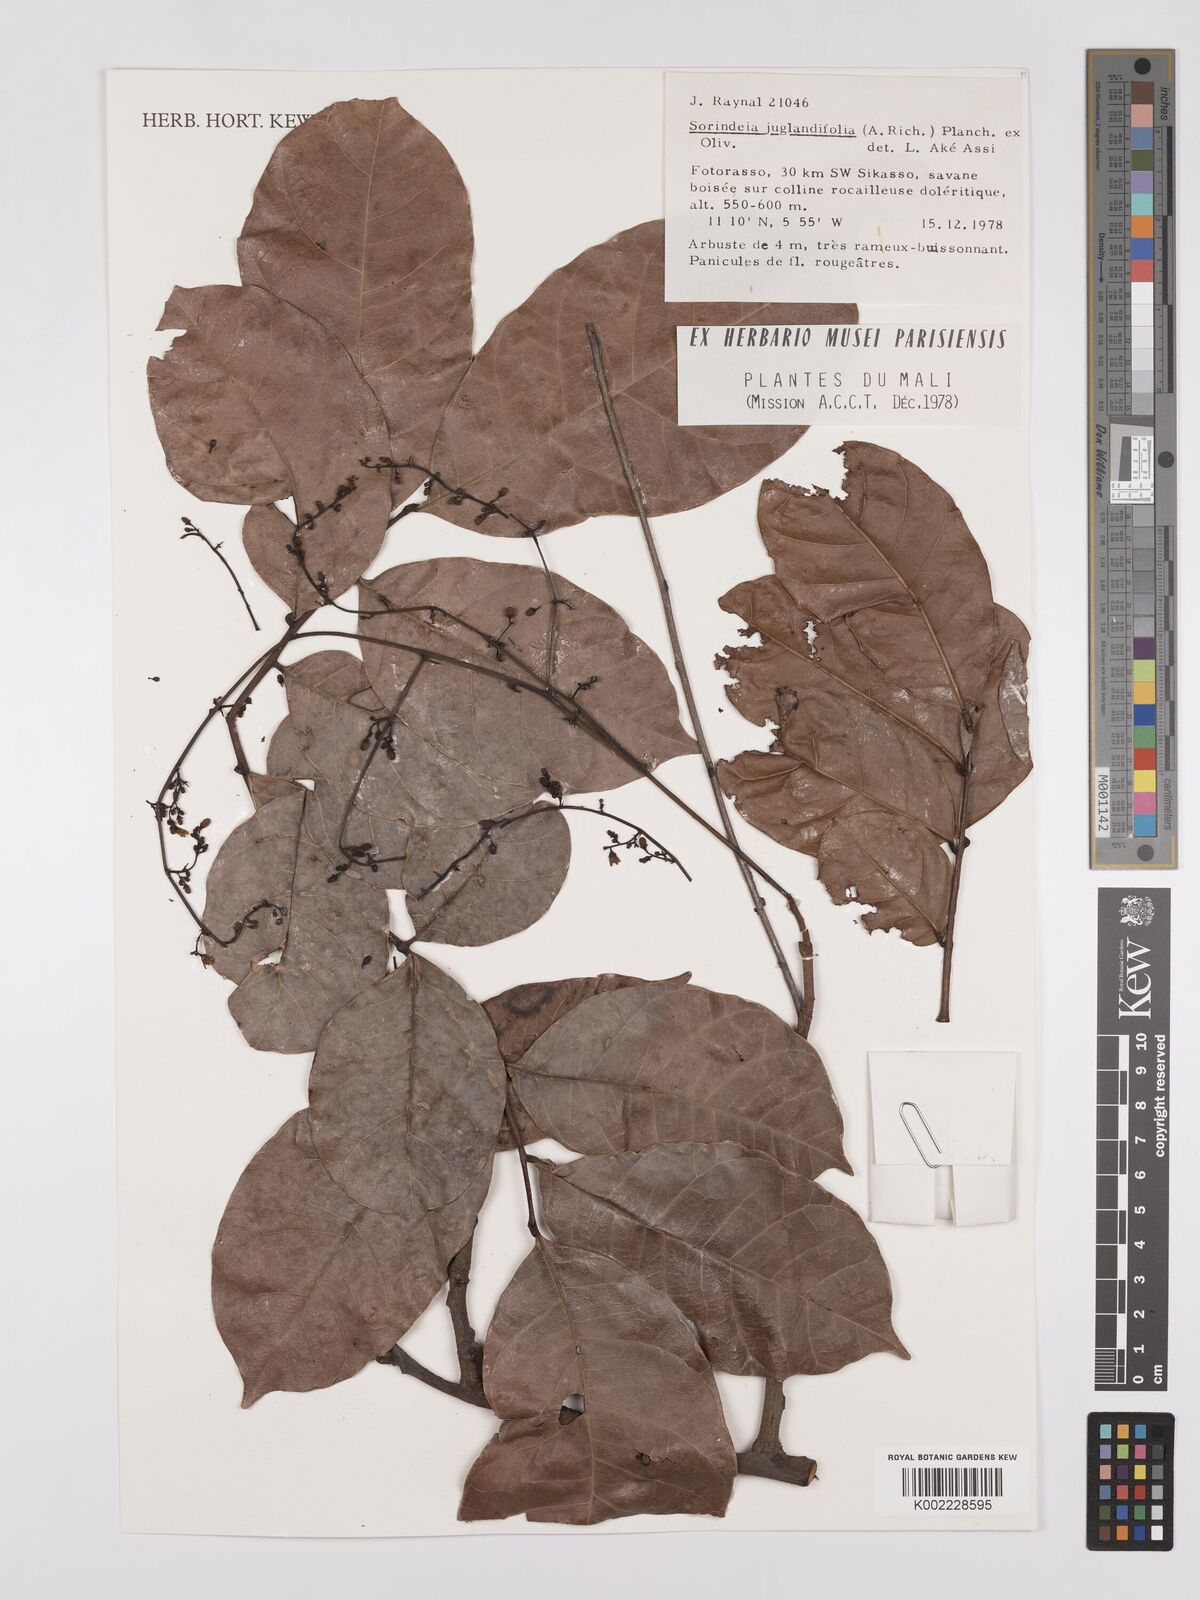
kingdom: Plantae
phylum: Tracheophyta
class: Magnoliopsida
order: Sapindales
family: Anacardiaceae
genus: Sorindeia
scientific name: Sorindeia juglandifolia
